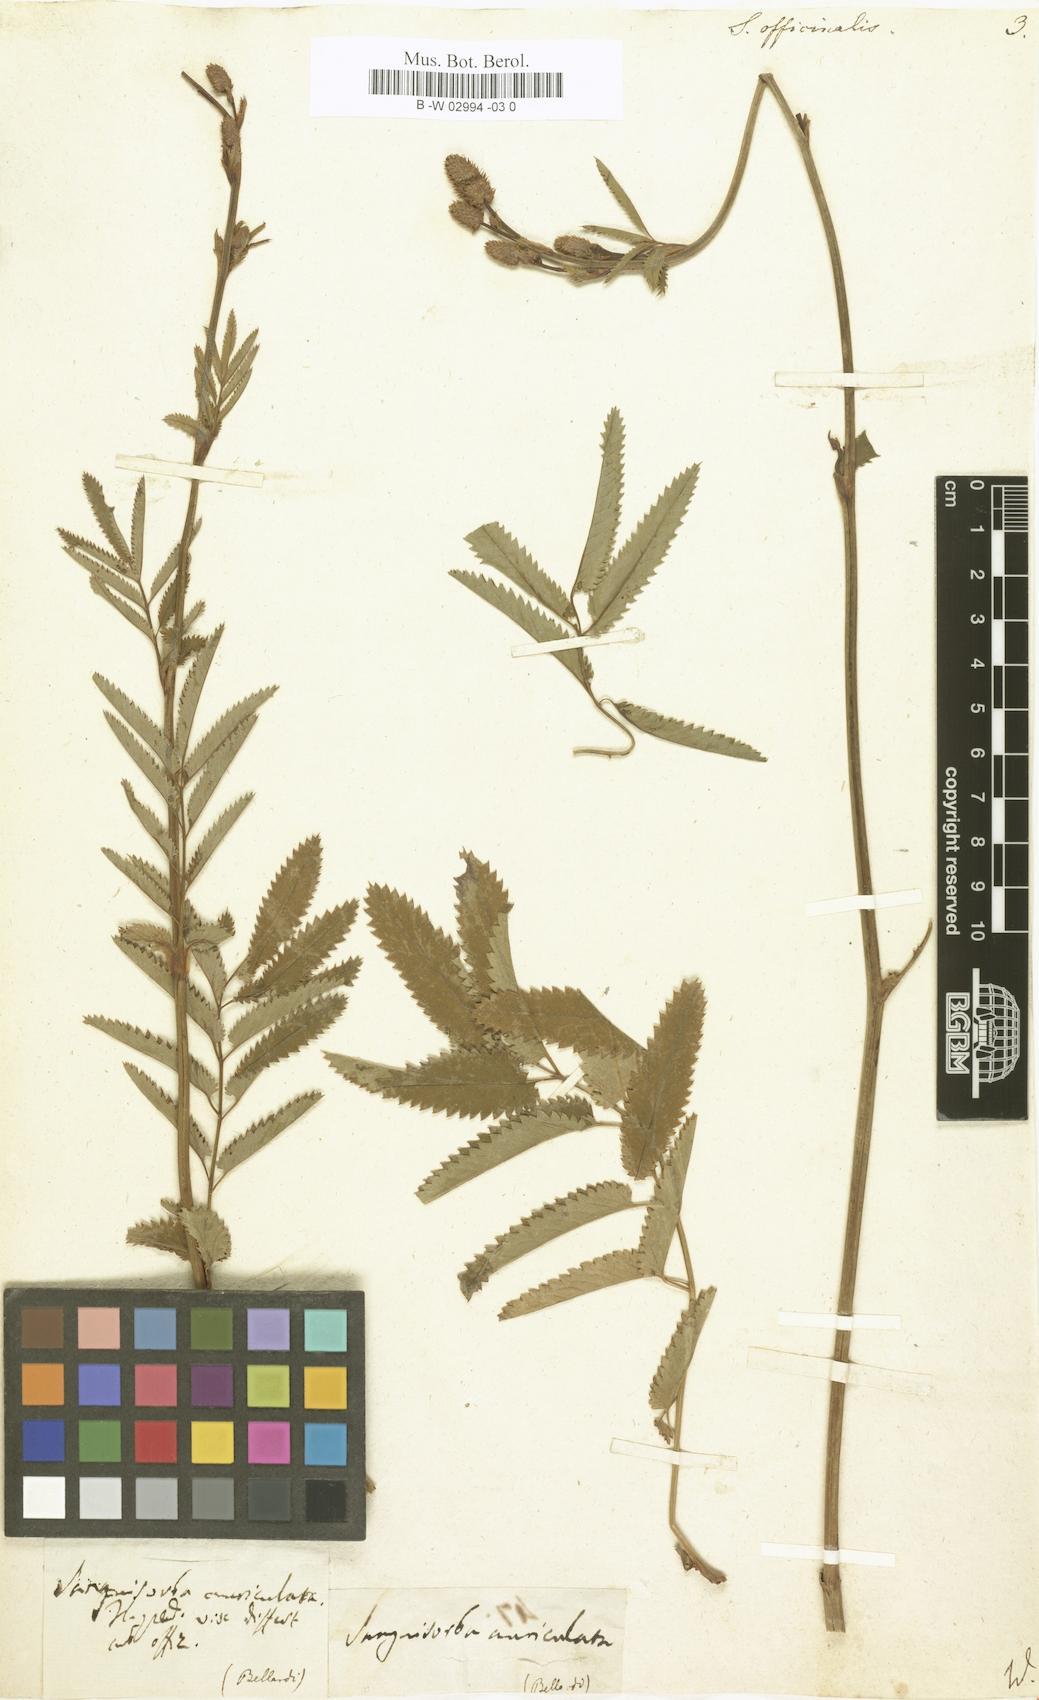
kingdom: Plantae
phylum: Tracheophyta
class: Magnoliopsida
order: Rosales
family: Rosaceae
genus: Sanguisorba
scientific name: Sanguisorba officinalis
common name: Great burnet
